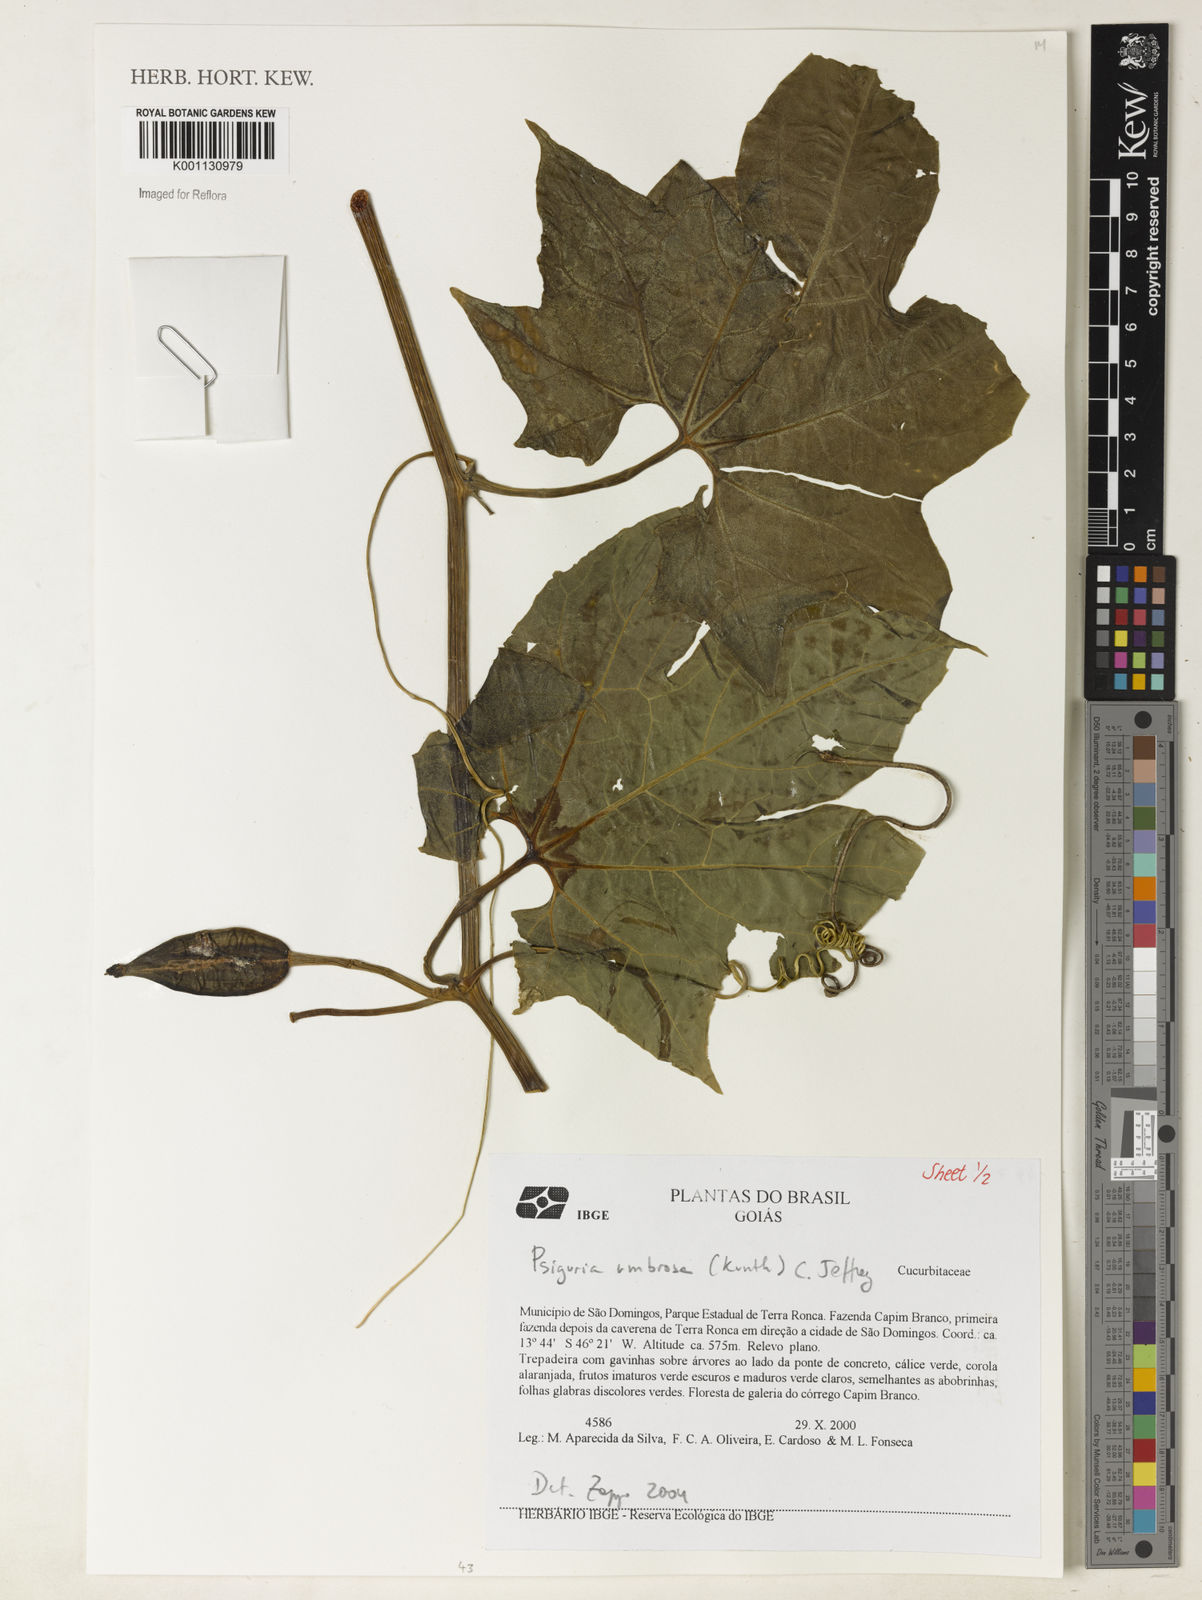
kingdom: Plantae
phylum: Tracheophyta
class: Magnoliopsida
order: Cucurbitales
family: Cucurbitaceae
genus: Psiguria
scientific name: Psiguria umbrosa
